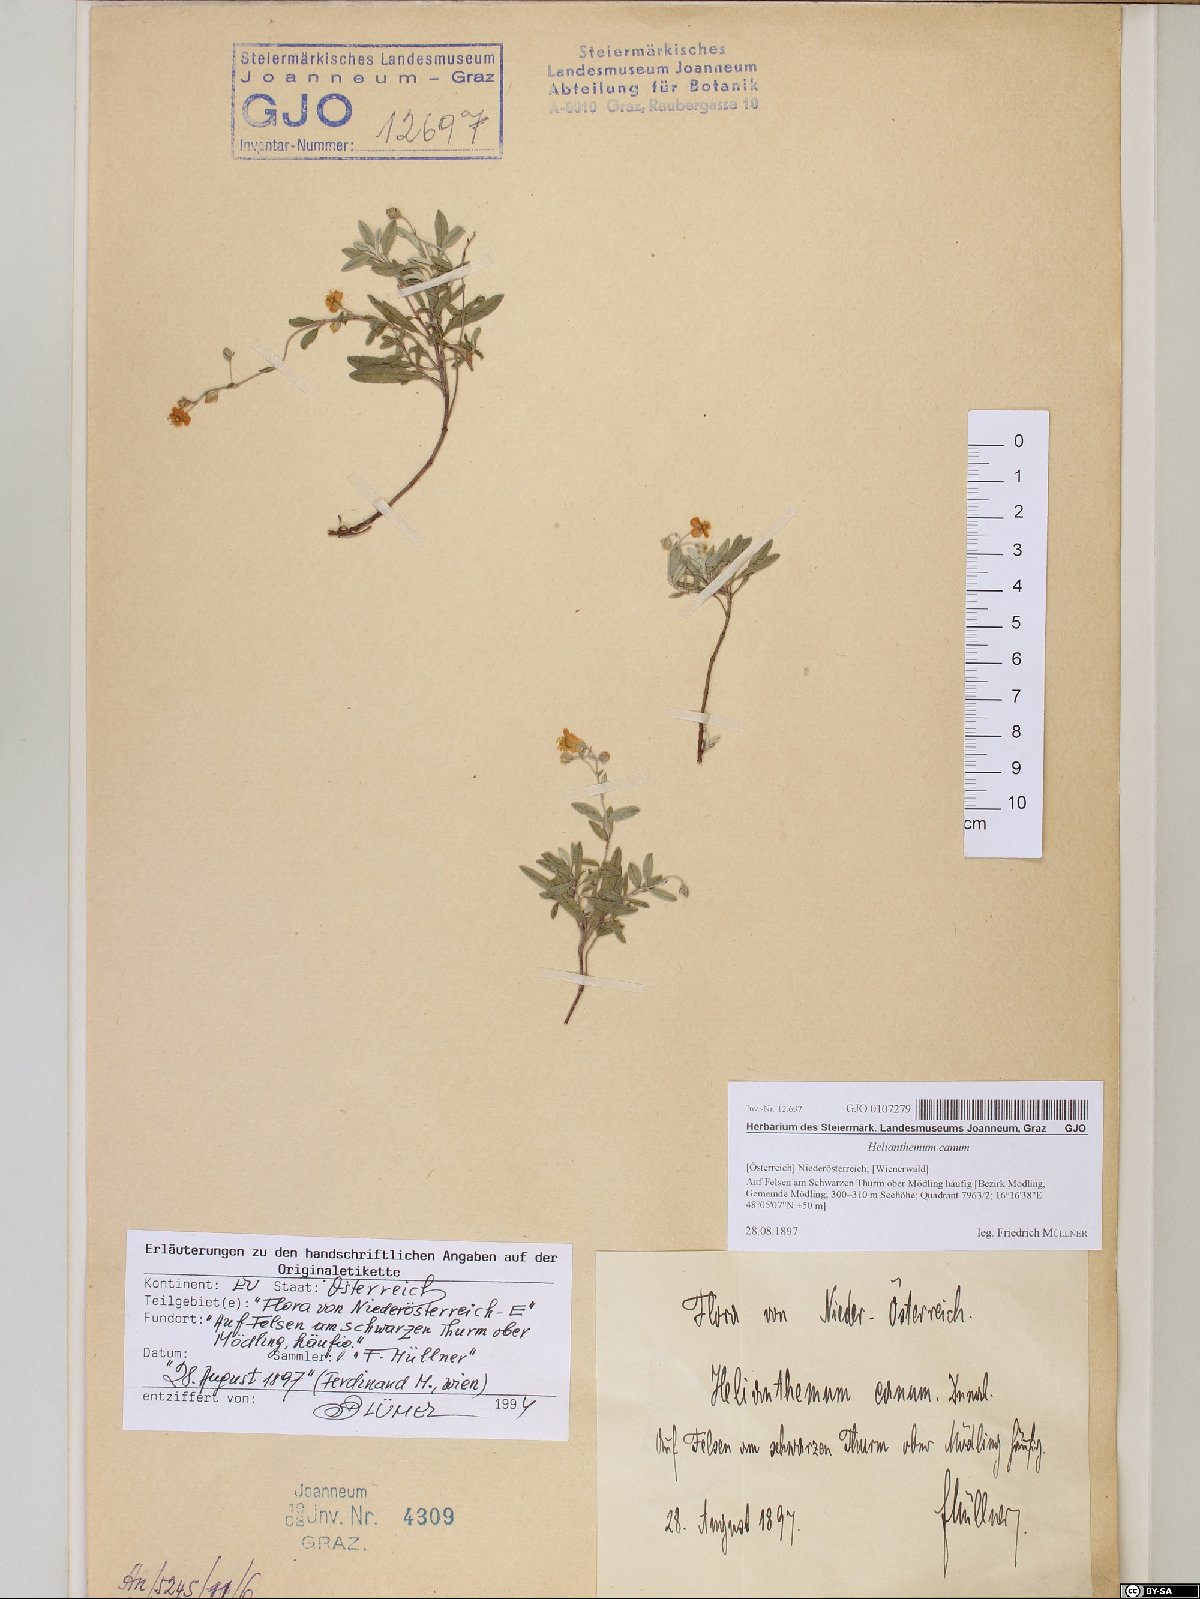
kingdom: Plantae
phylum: Tracheophyta
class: Magnoliopsida
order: Malvales
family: Cistaceae
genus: Helianthemum
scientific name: Helianthemum canum
